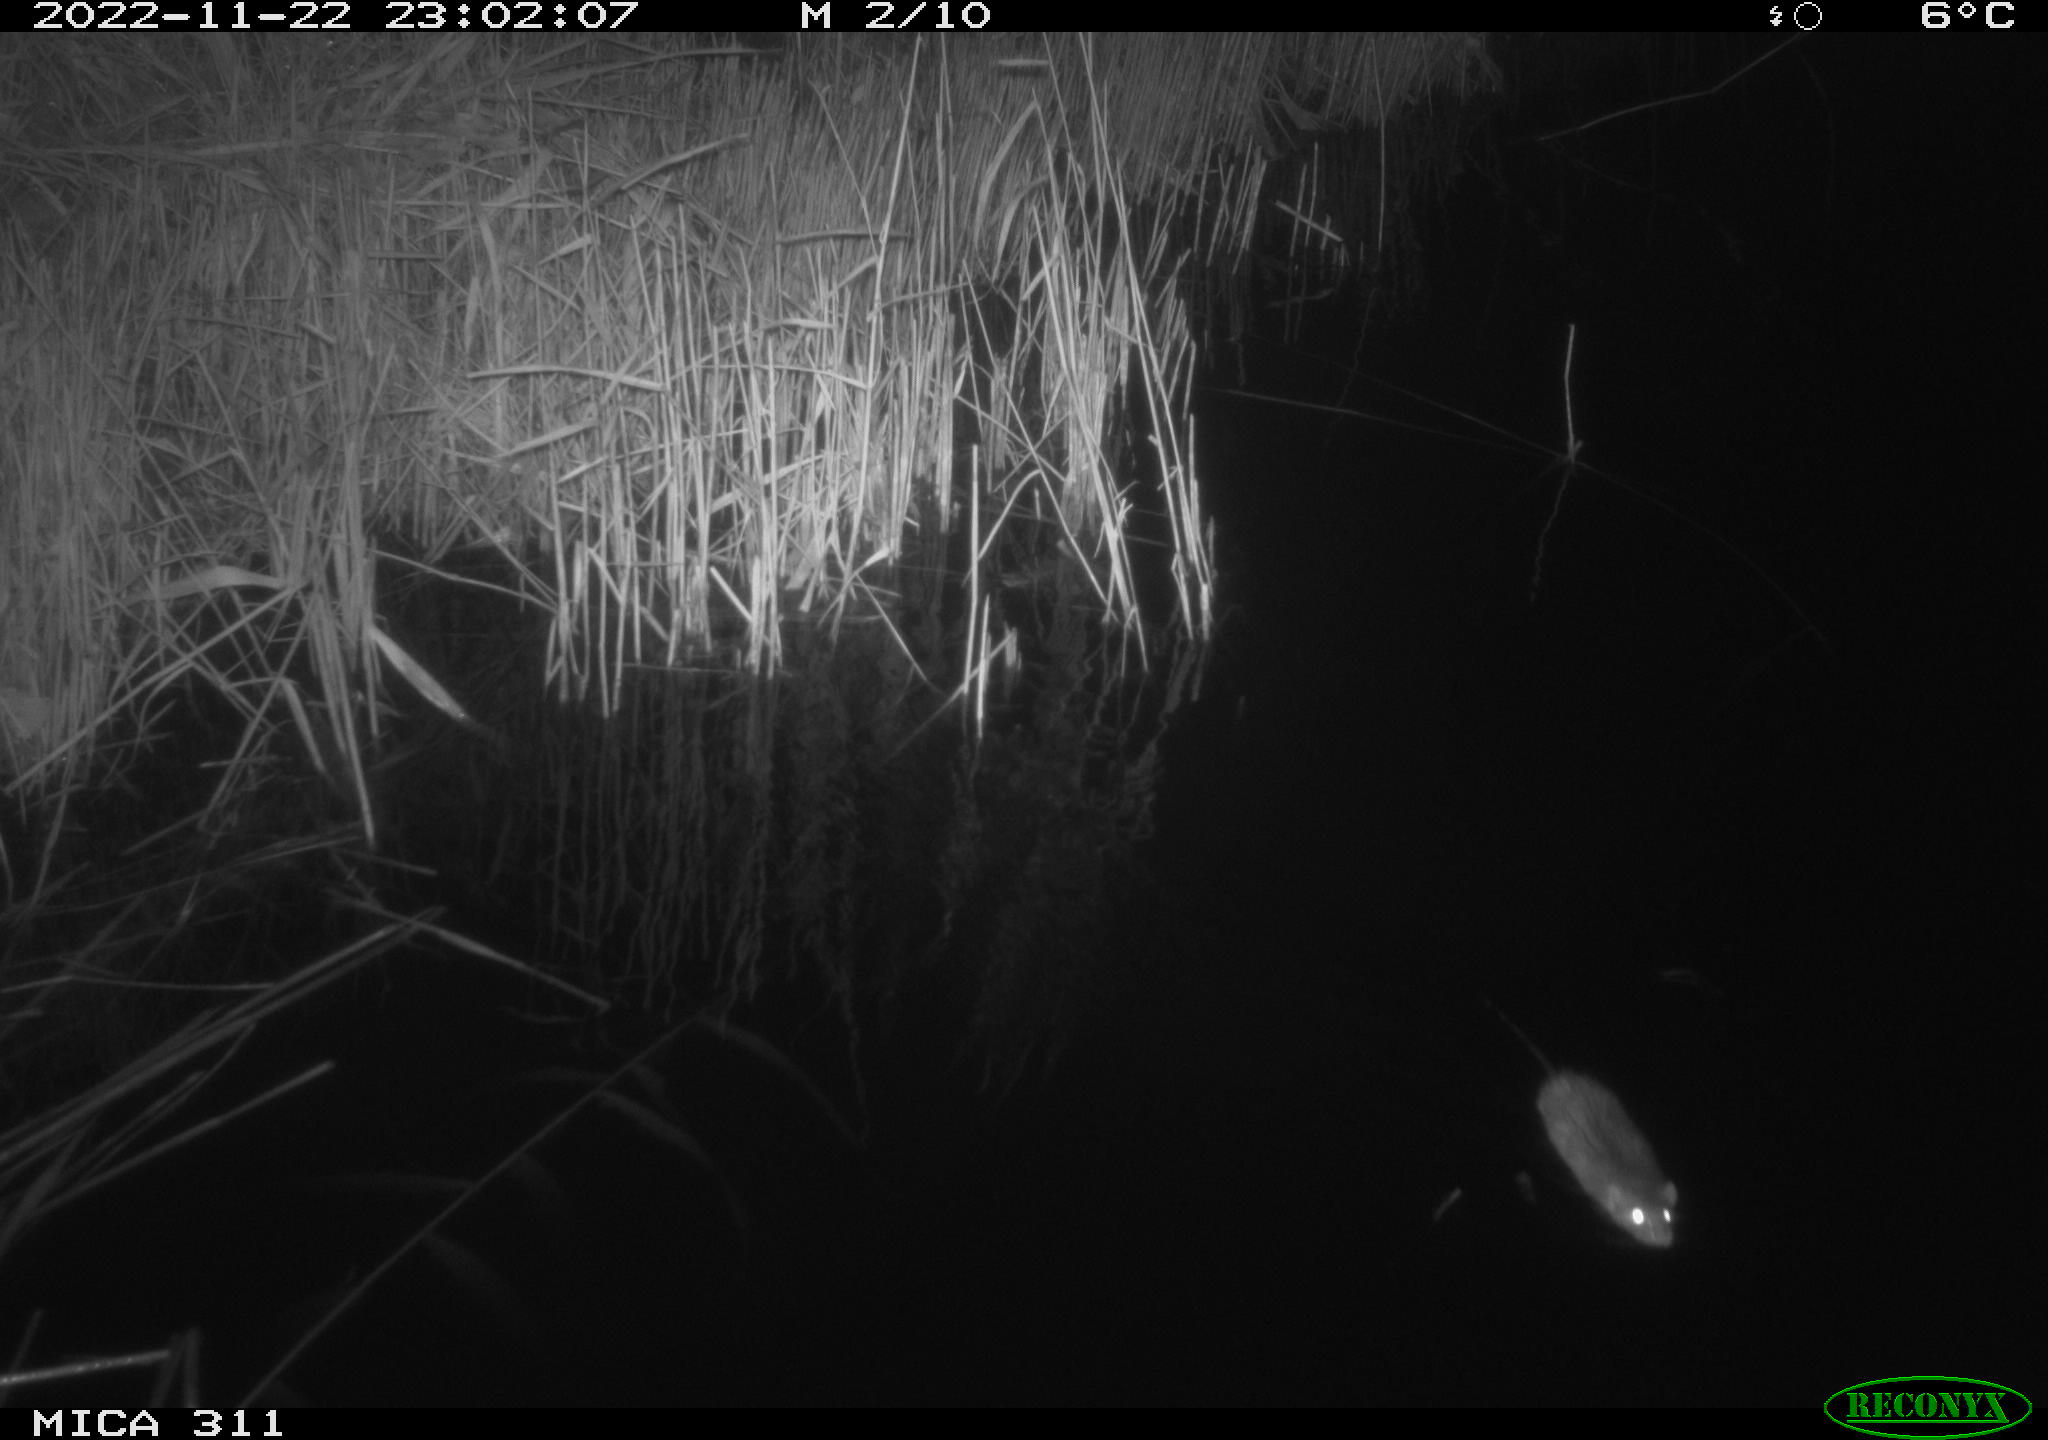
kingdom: Animalia
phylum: Chordata
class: Mammalia
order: Rodentia
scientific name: Rodentia
